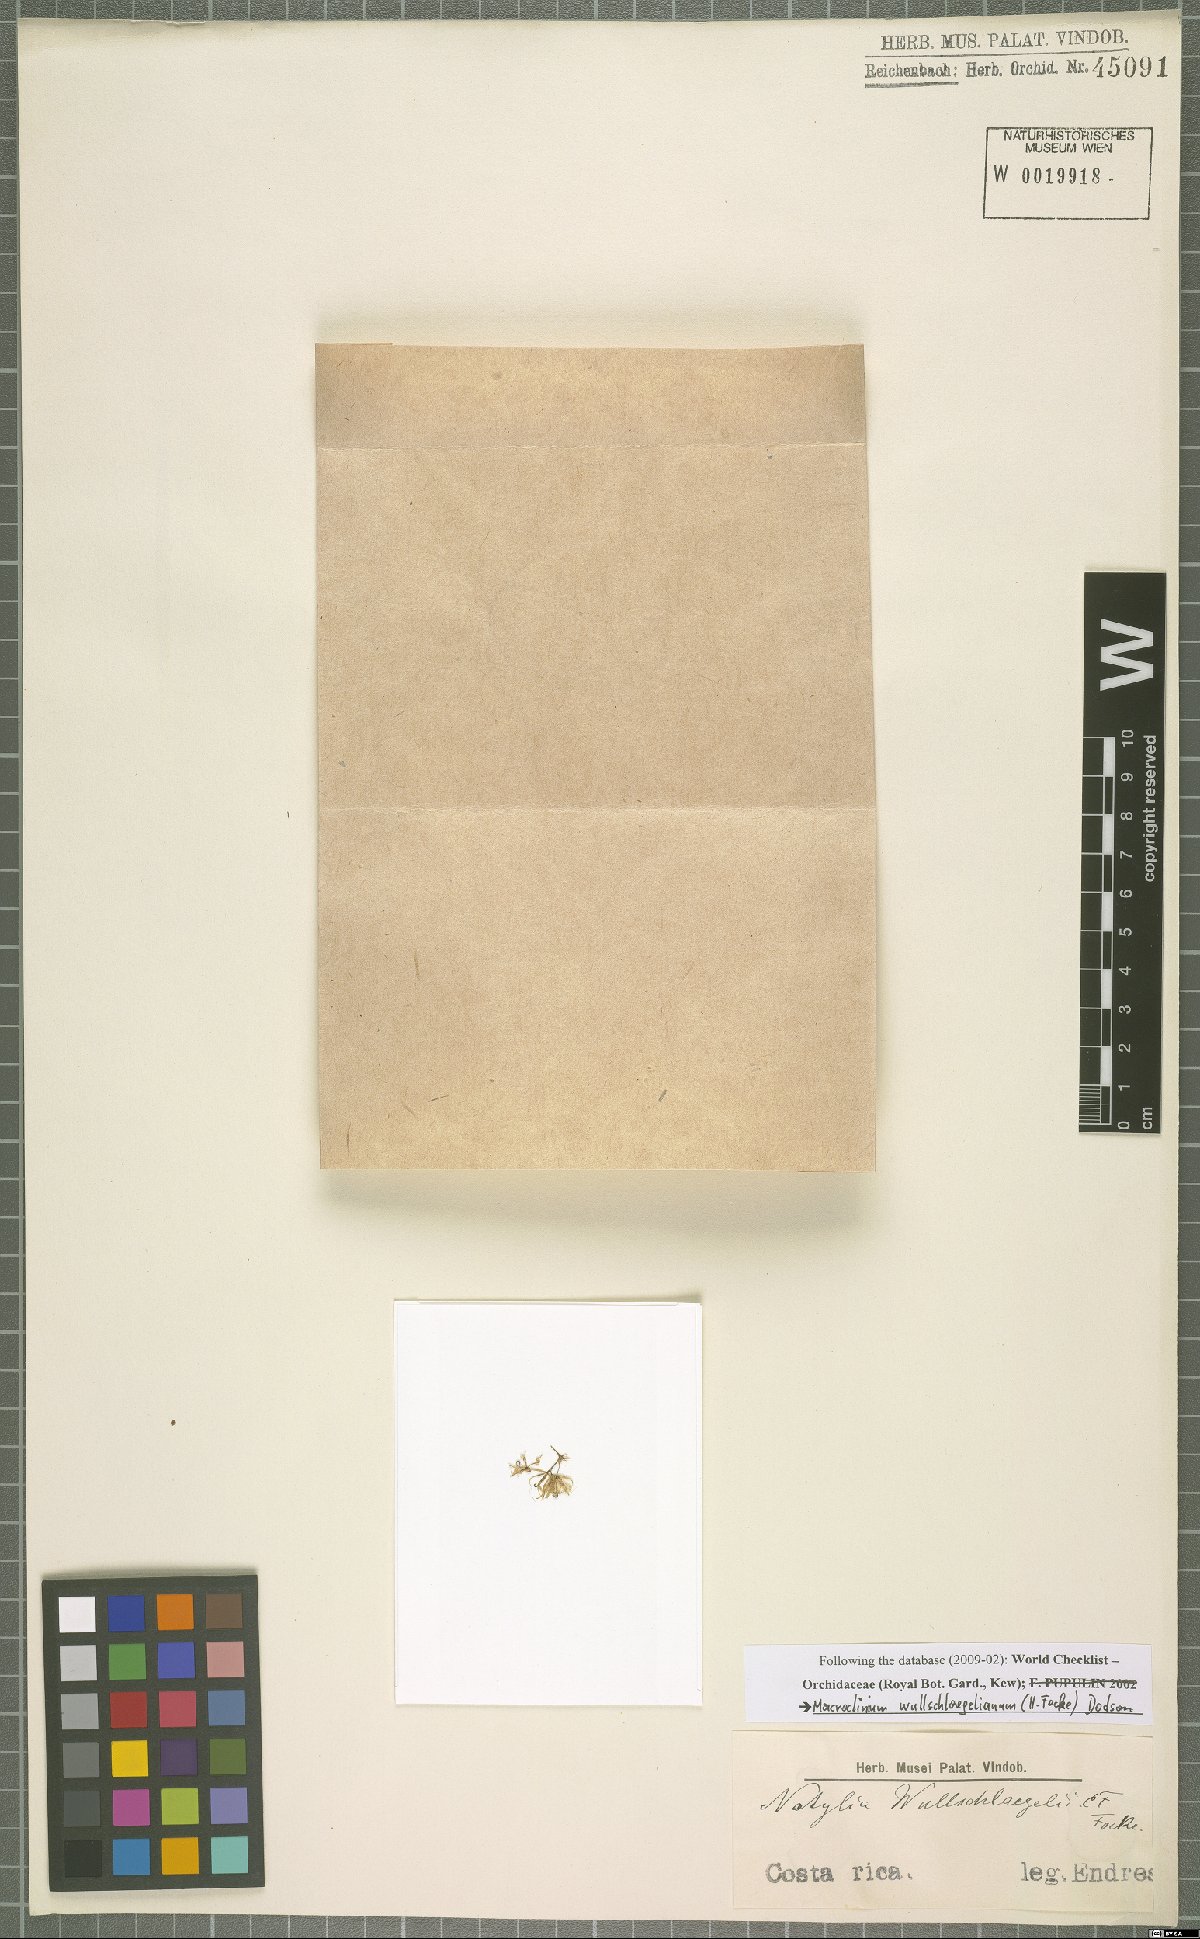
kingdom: Plantae
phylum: Tracheophyta
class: Liliopsida
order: Asparagales
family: Orchidaceae
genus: Macroclinium
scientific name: Macroclinium wullschlaegelianum
